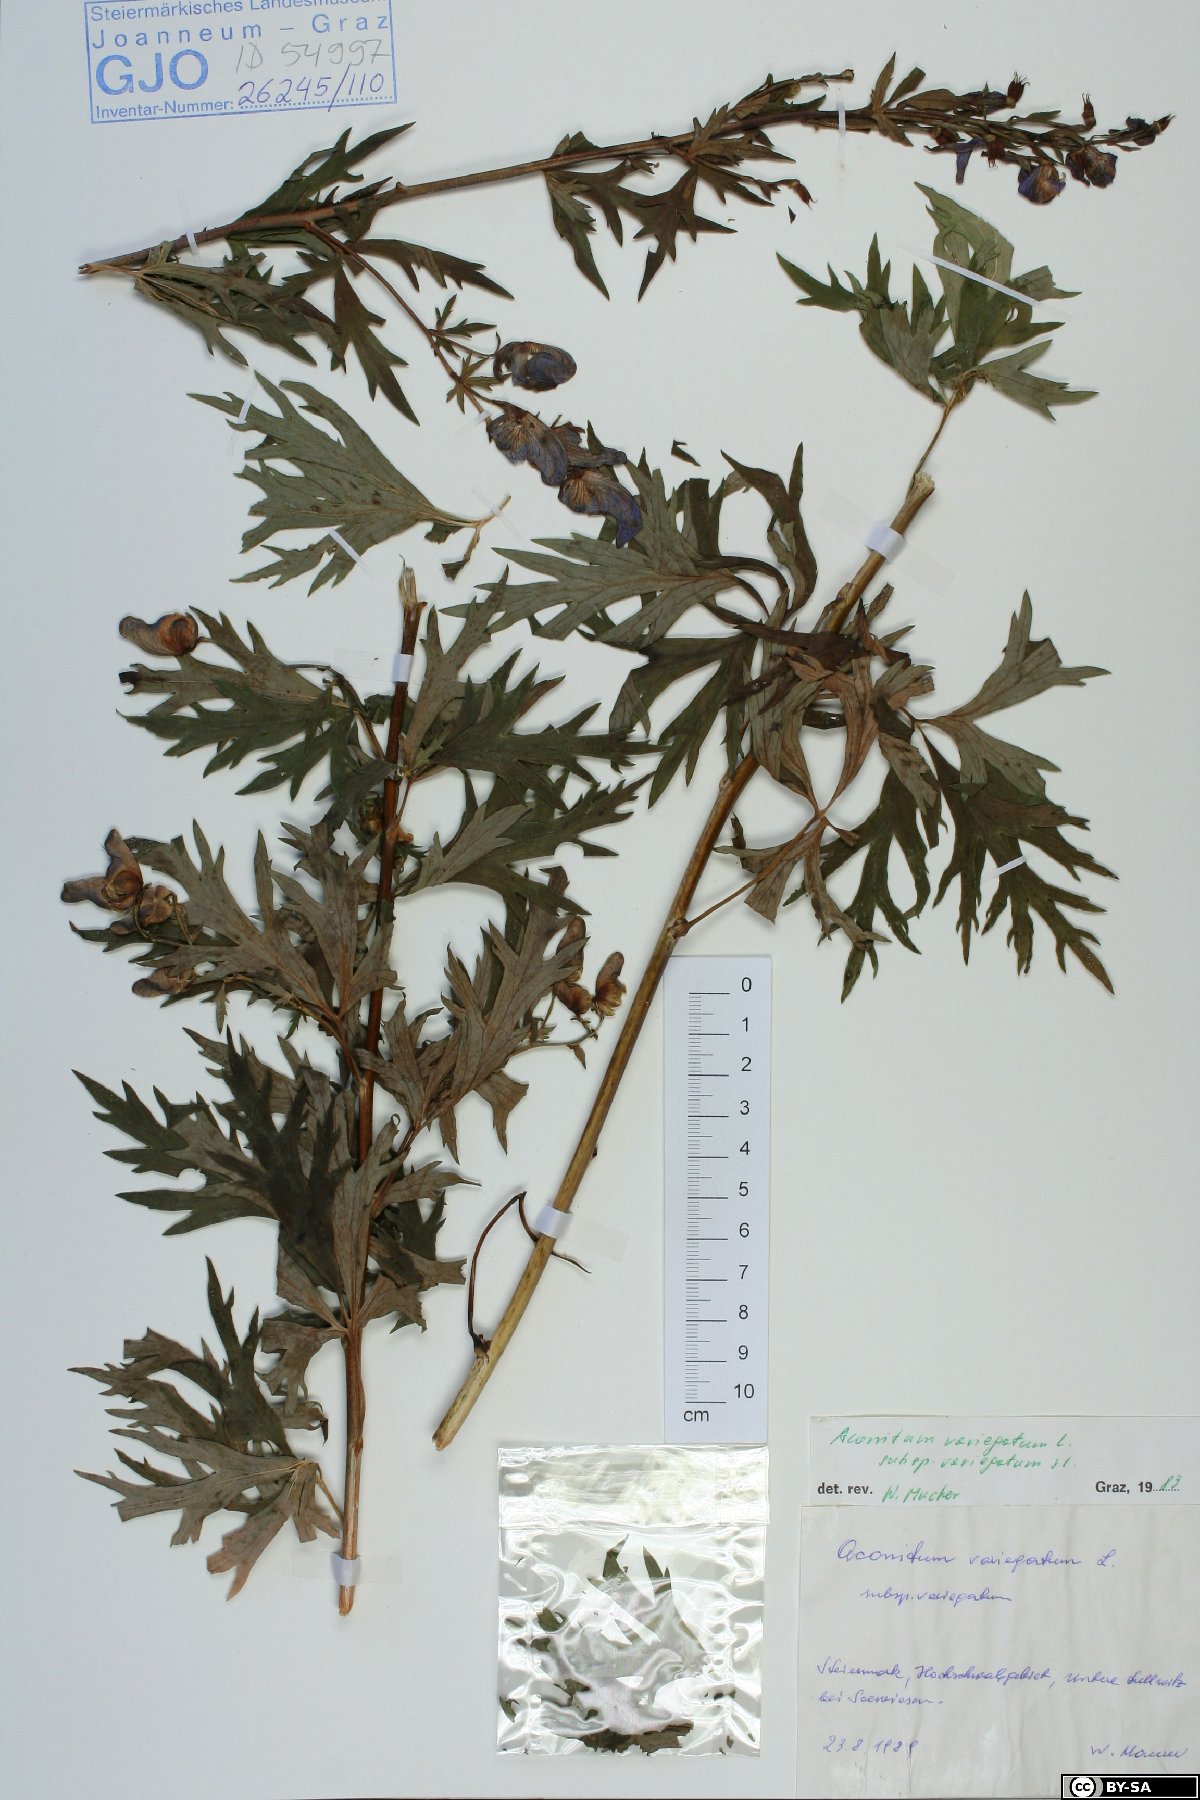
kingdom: Plantae
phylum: Tracheophyta
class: Magnoliopsida
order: Ranunculales
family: Ranunculaceae
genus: Aconitum
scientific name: Aconitum variegatum
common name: Manchurian monkshood
